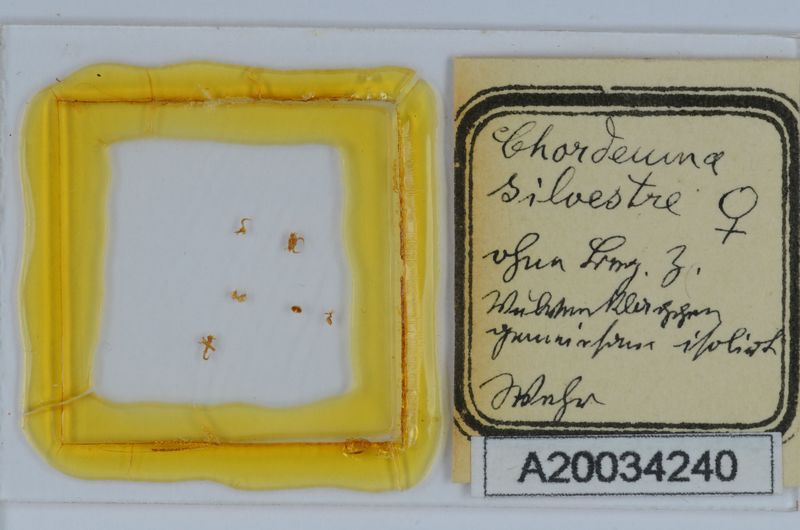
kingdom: Animalia
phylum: Arthropoda
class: Diplopoda
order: Chordeumatida
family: Chordeumatidae
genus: Chordeuma
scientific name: Chordeuma sylvestre
